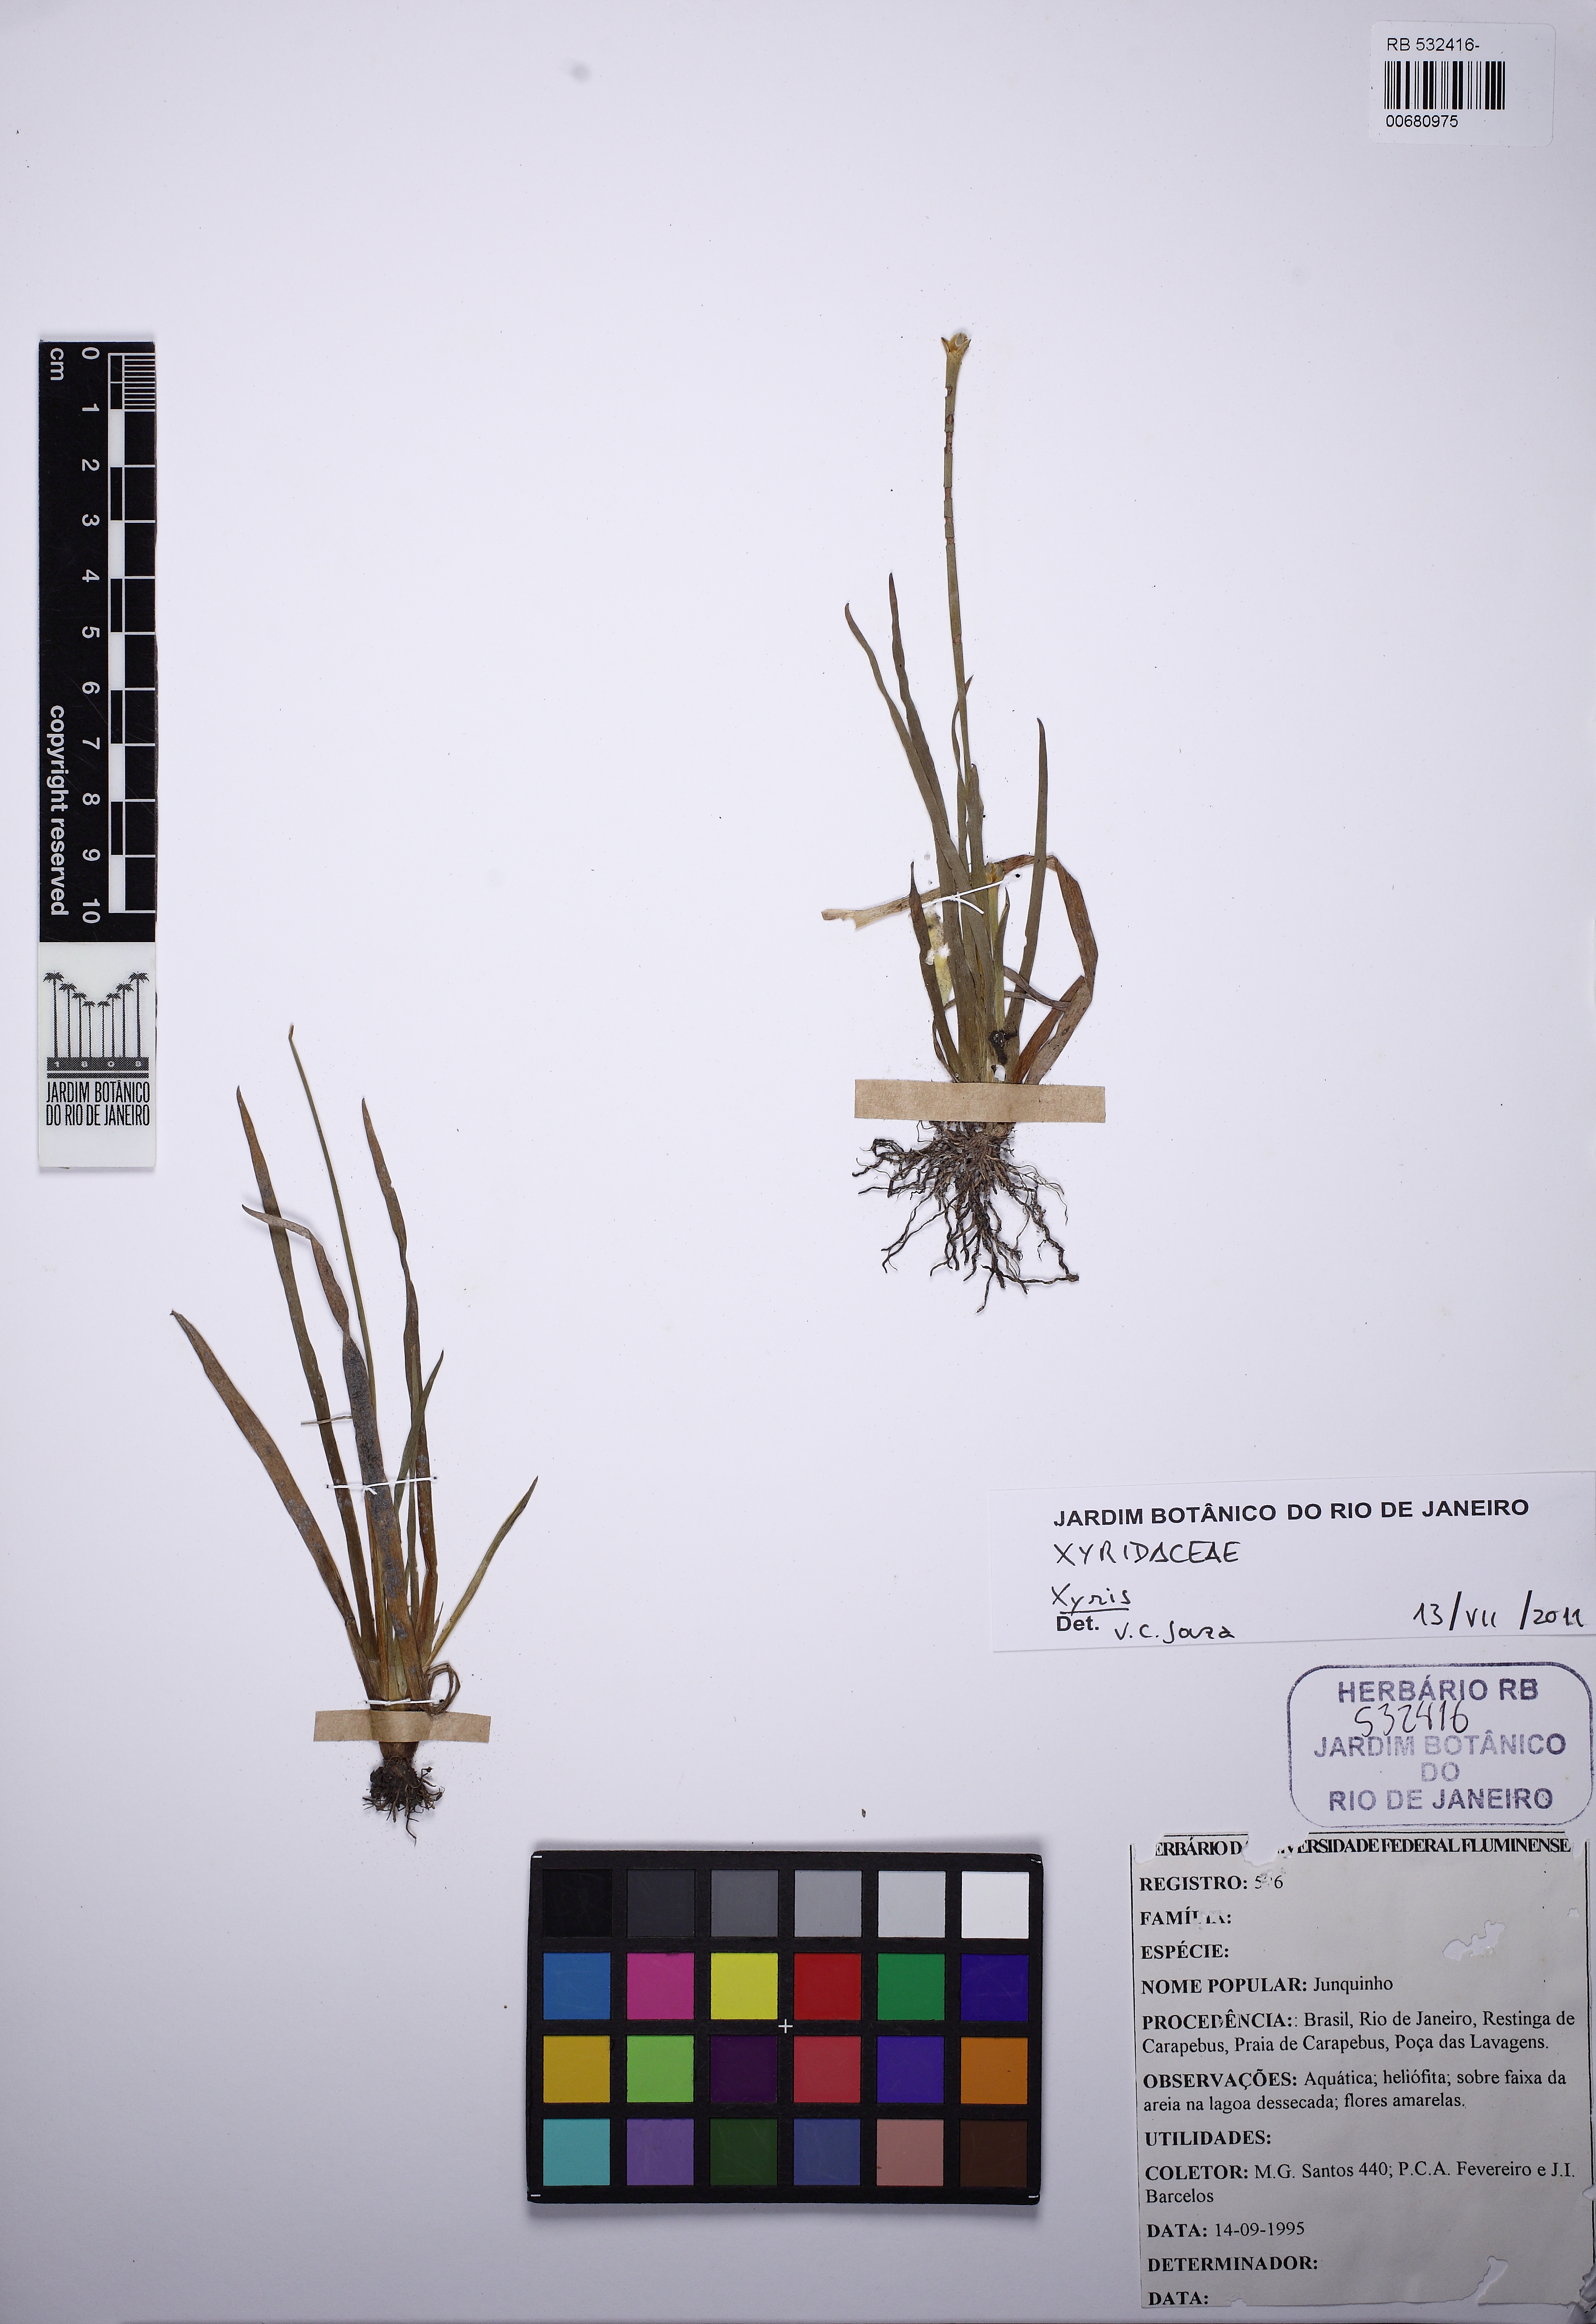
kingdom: Plantae
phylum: Tracheophyta
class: Liliopsida
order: Poales
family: Xyridaceae
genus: Xyris
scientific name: Xyris jupicai
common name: Richard's yelloweyed grass
